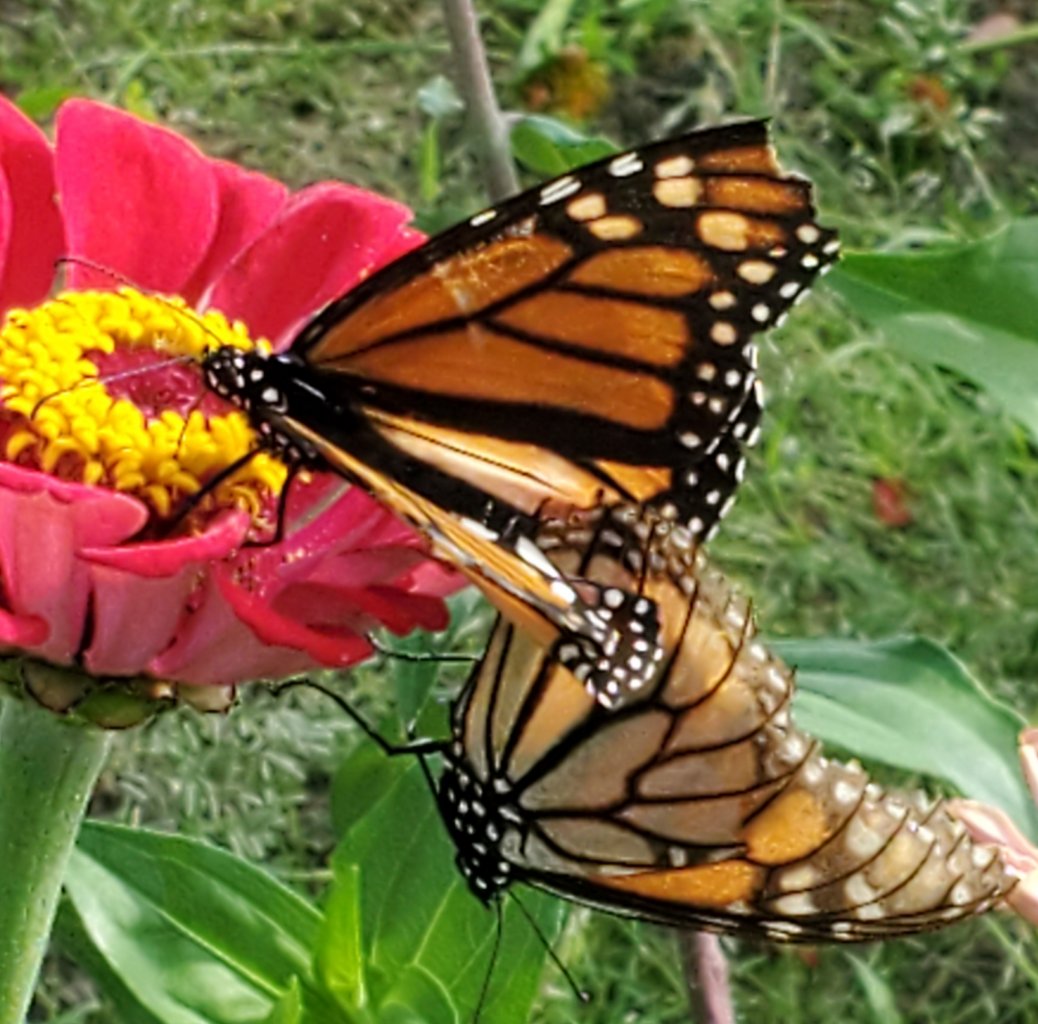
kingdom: Animalia
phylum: Arthropoda
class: Insecta
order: Lepidoptera
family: Nymphalidae
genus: Danaus
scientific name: Danaus plexippus
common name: Monarch
